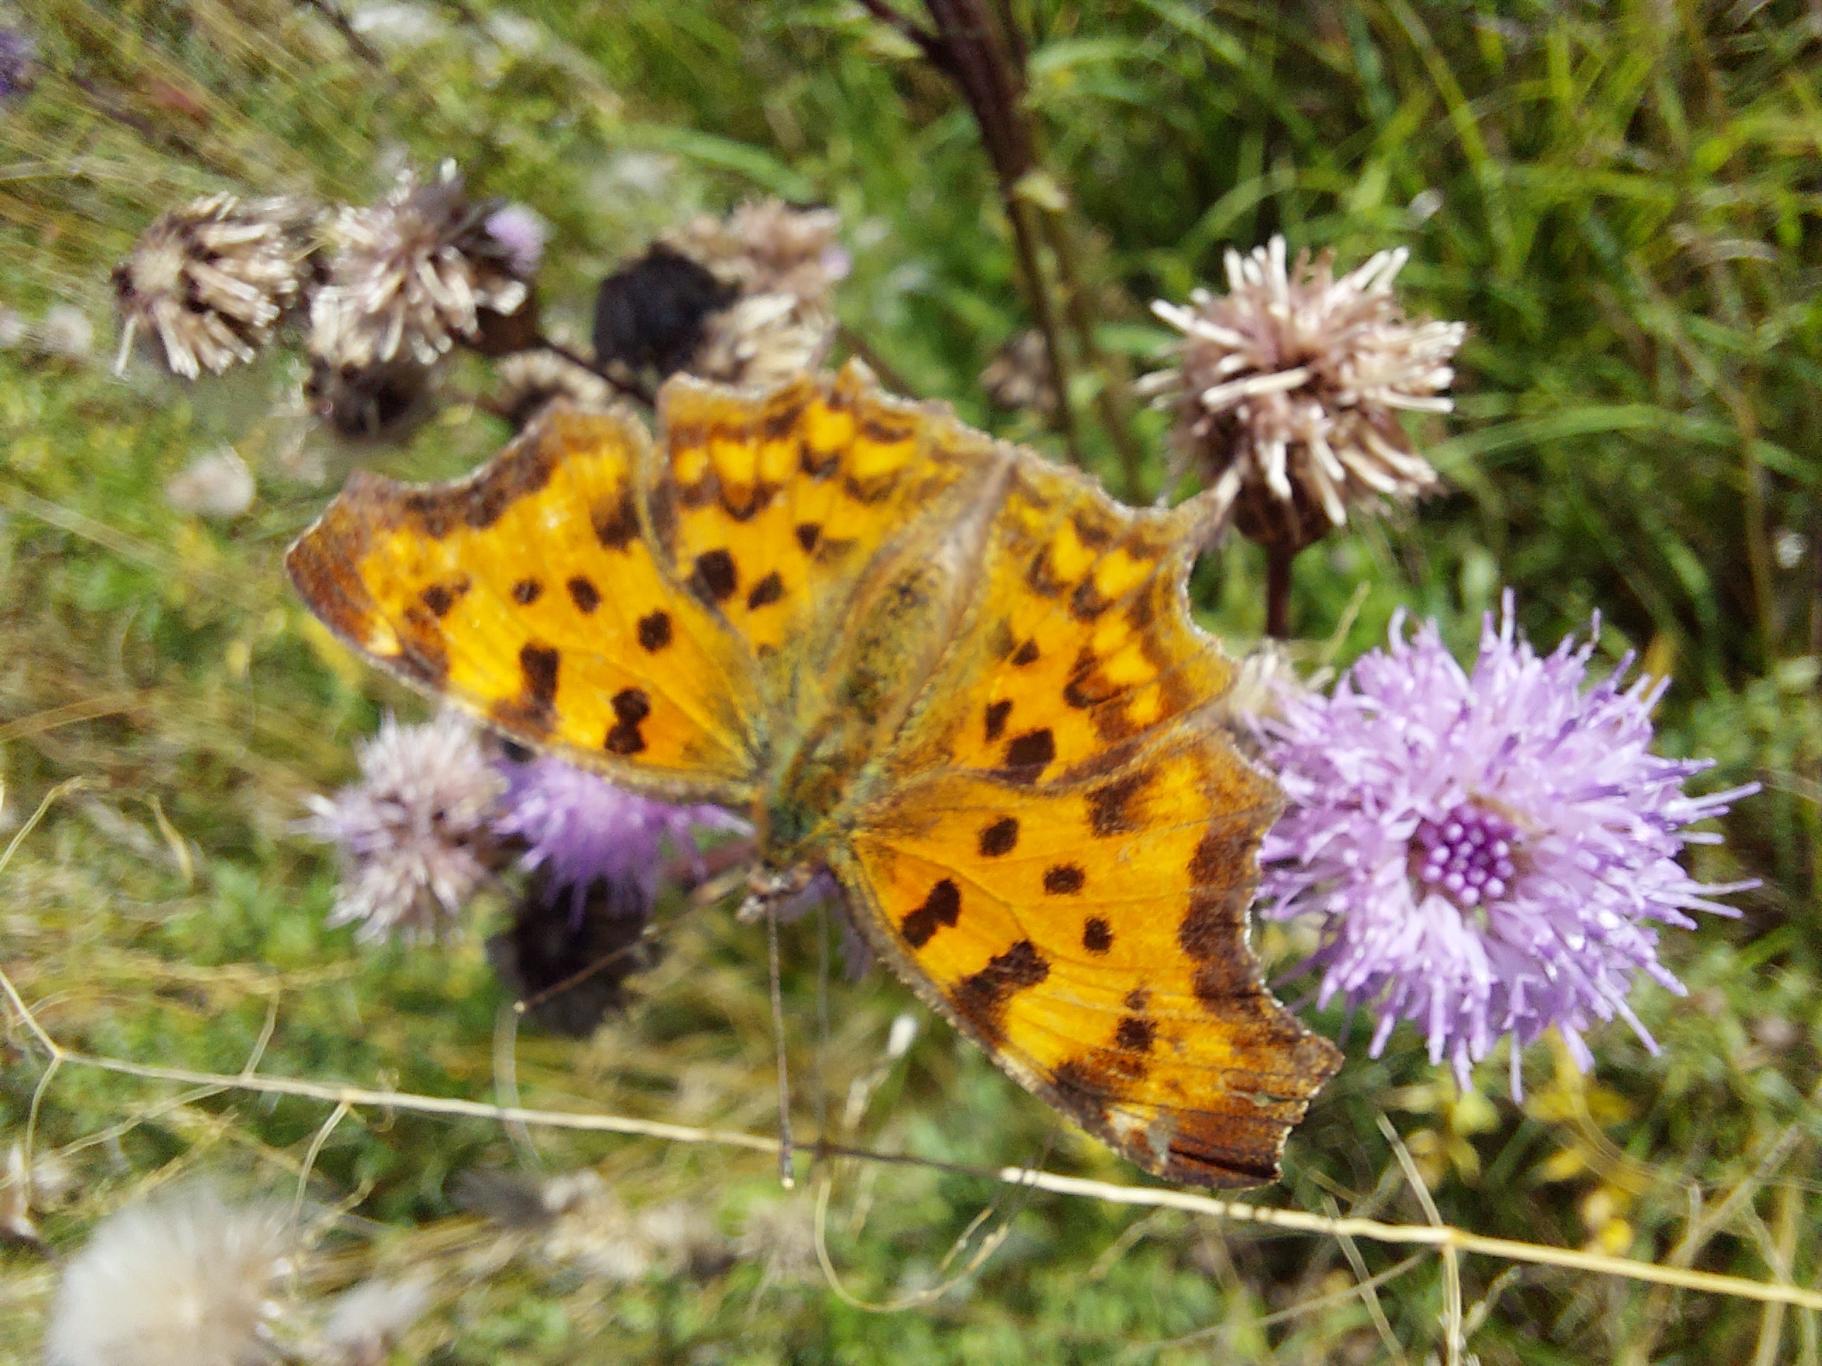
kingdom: Animalia
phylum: Arthropoda
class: Insecta
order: Lepidoptera
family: Nymphalidae
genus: Polygonia
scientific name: Polygonia c-album
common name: Det hvide C
